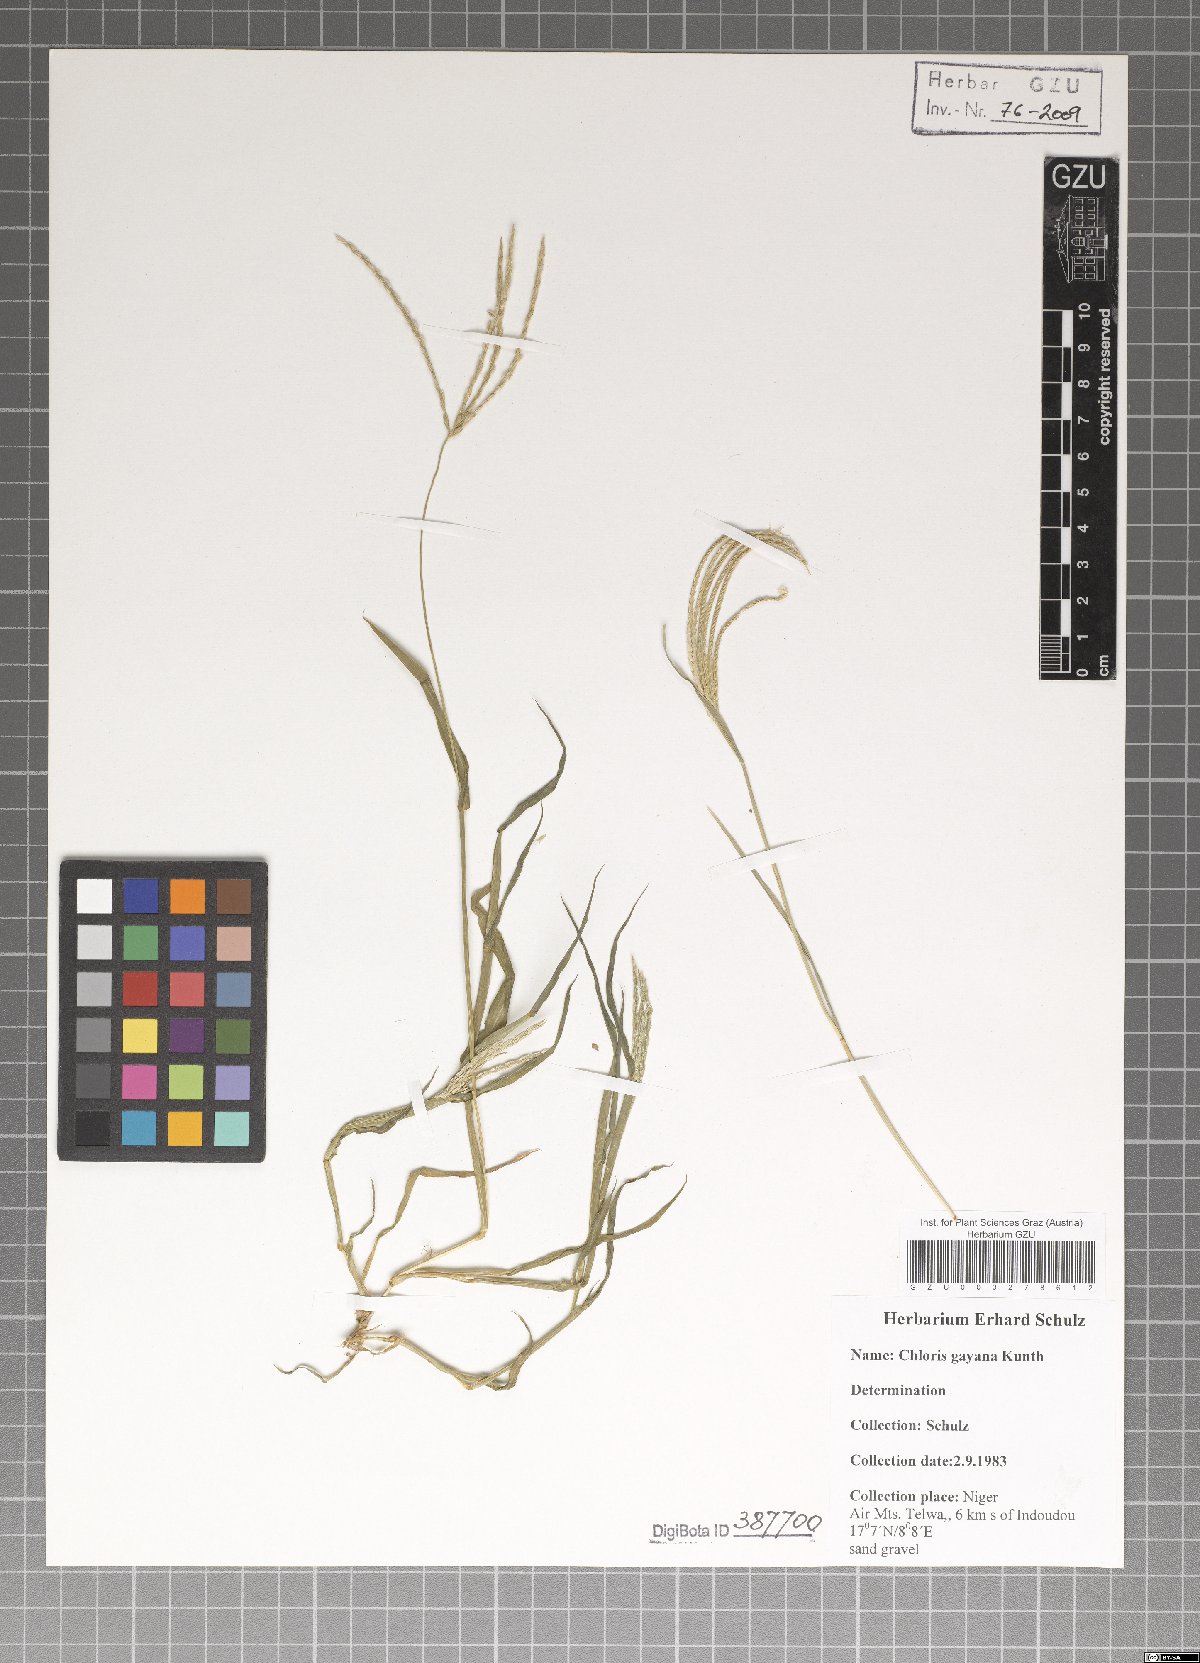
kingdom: Plantae
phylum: Tracheophyta
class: Liliopsida
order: Poales
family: Poaceae
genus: Chloris
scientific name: Chloris gayana
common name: Rhodes grass
